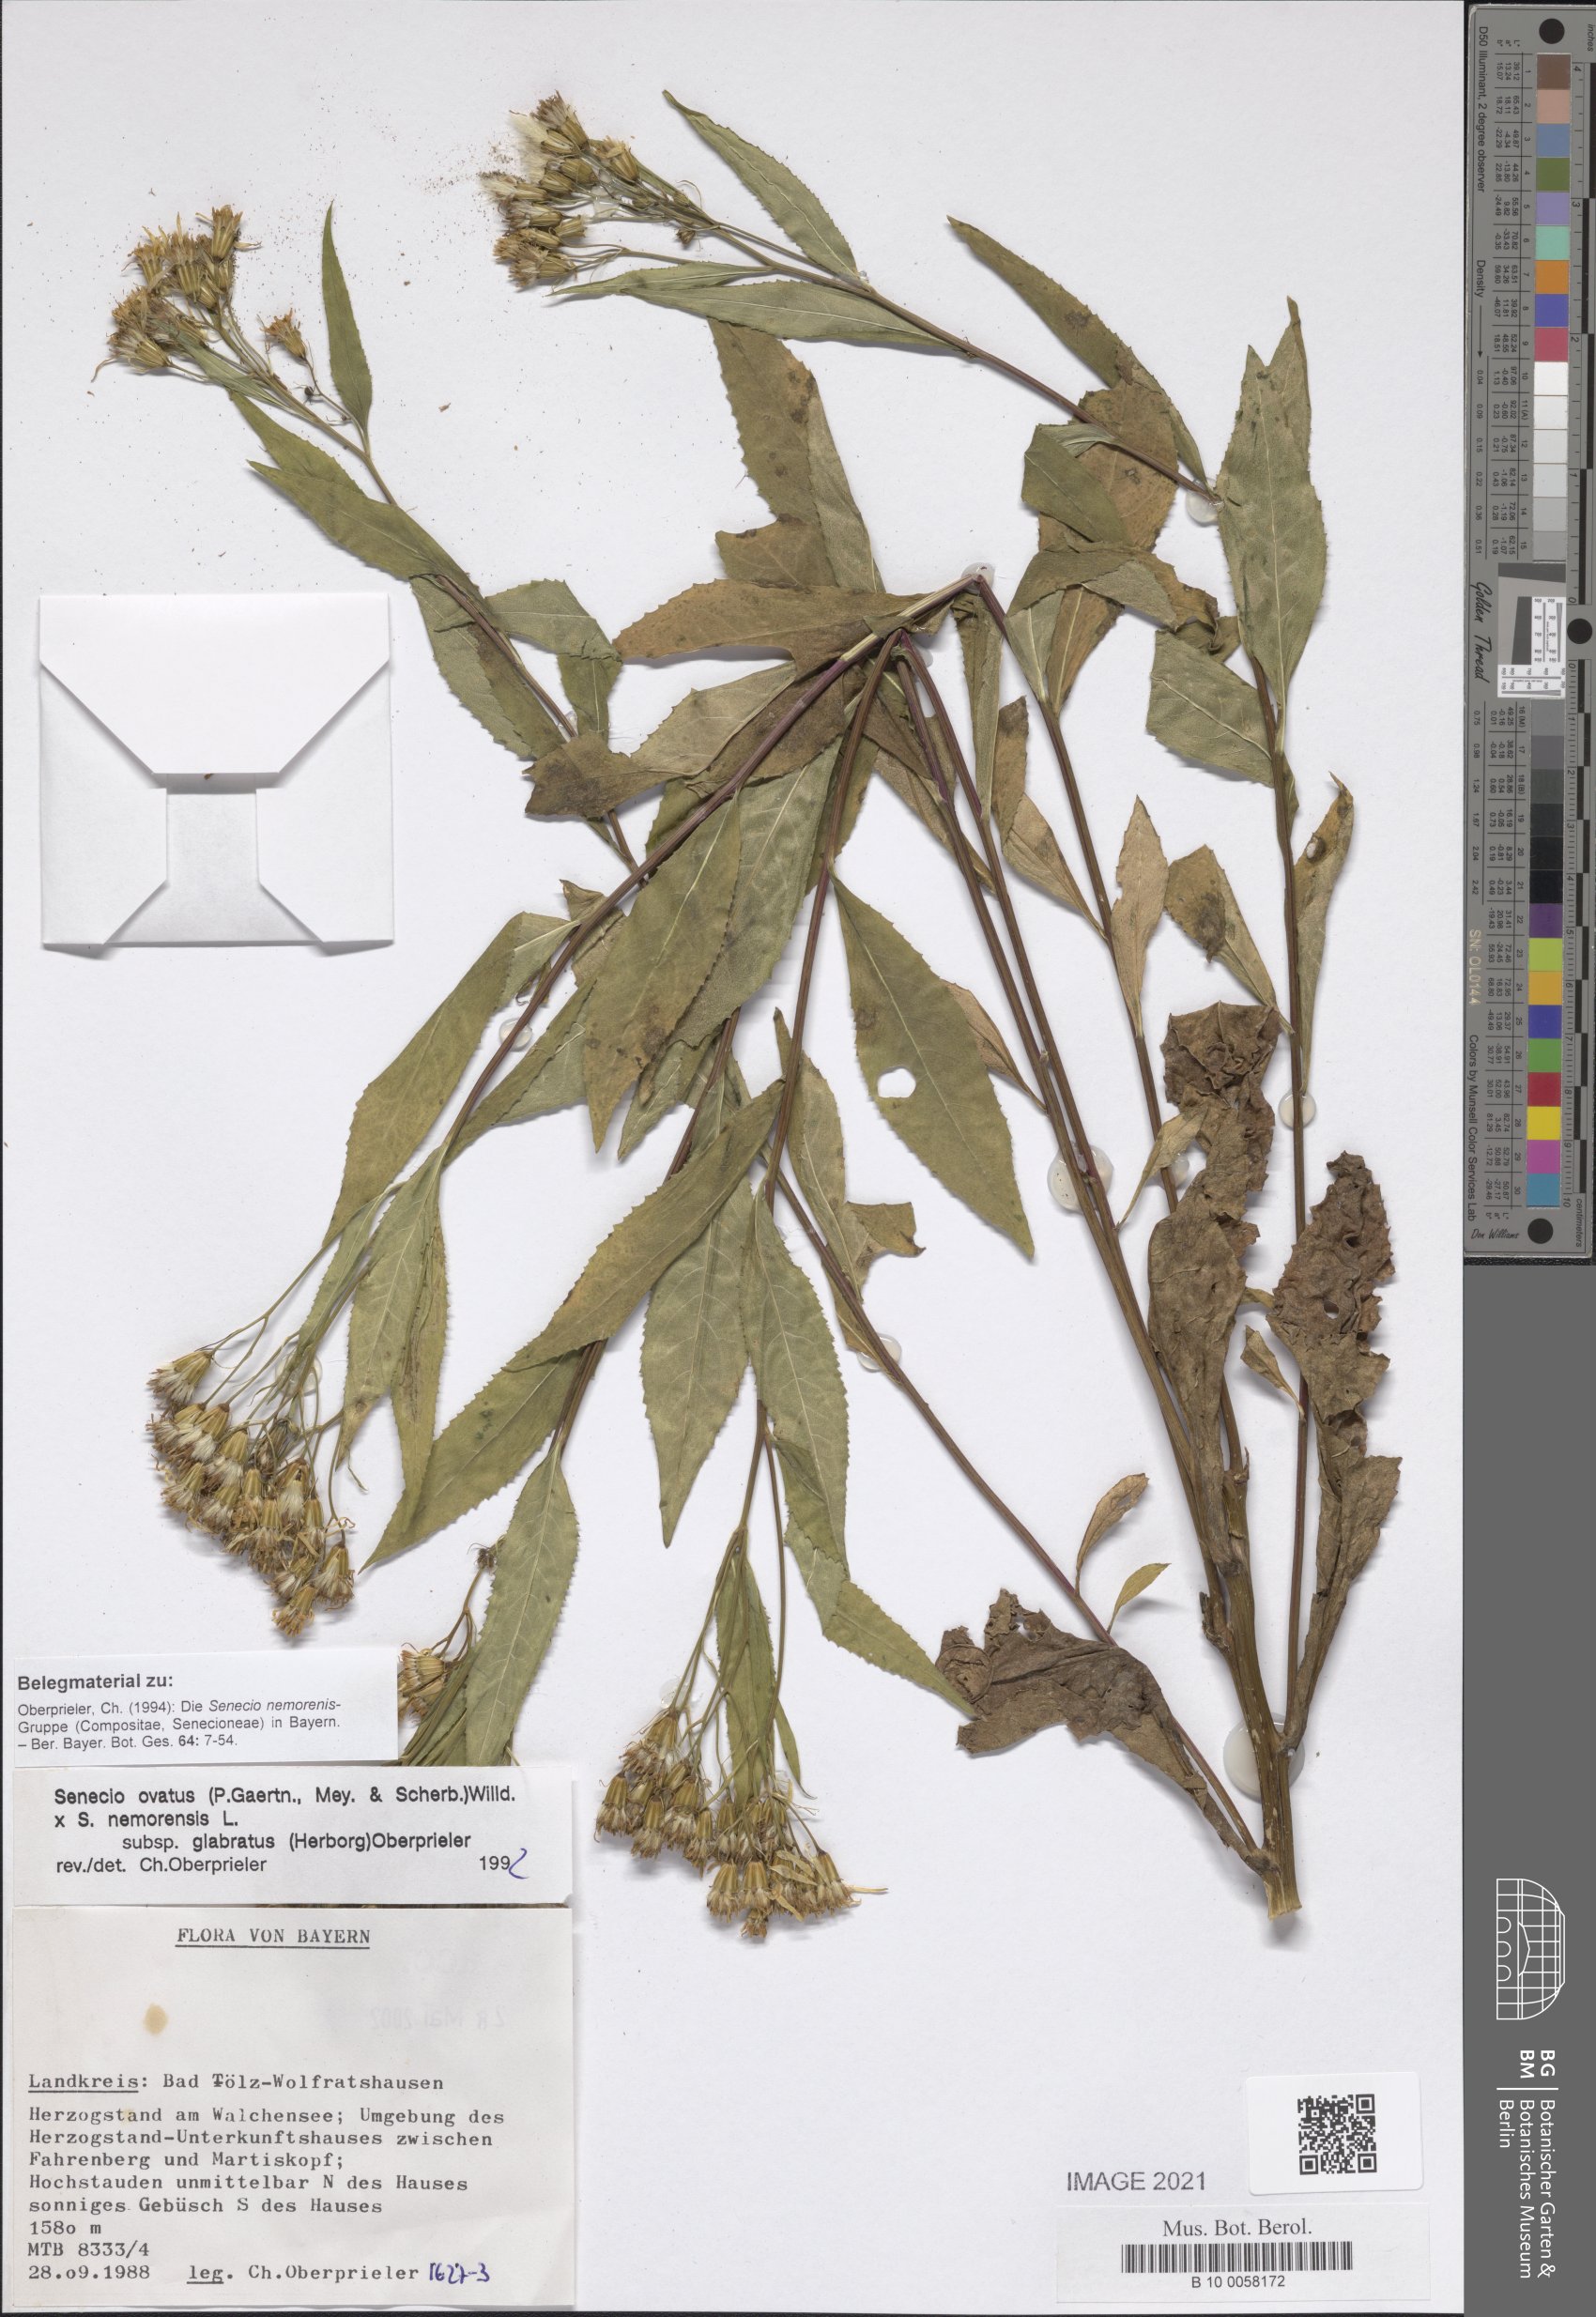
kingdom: Plantae
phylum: Tracheophyta
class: Magnoliopsida
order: Asterales
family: Asteraceae
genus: Senecio
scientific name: Senecio ovatus
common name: Wood ragwort
